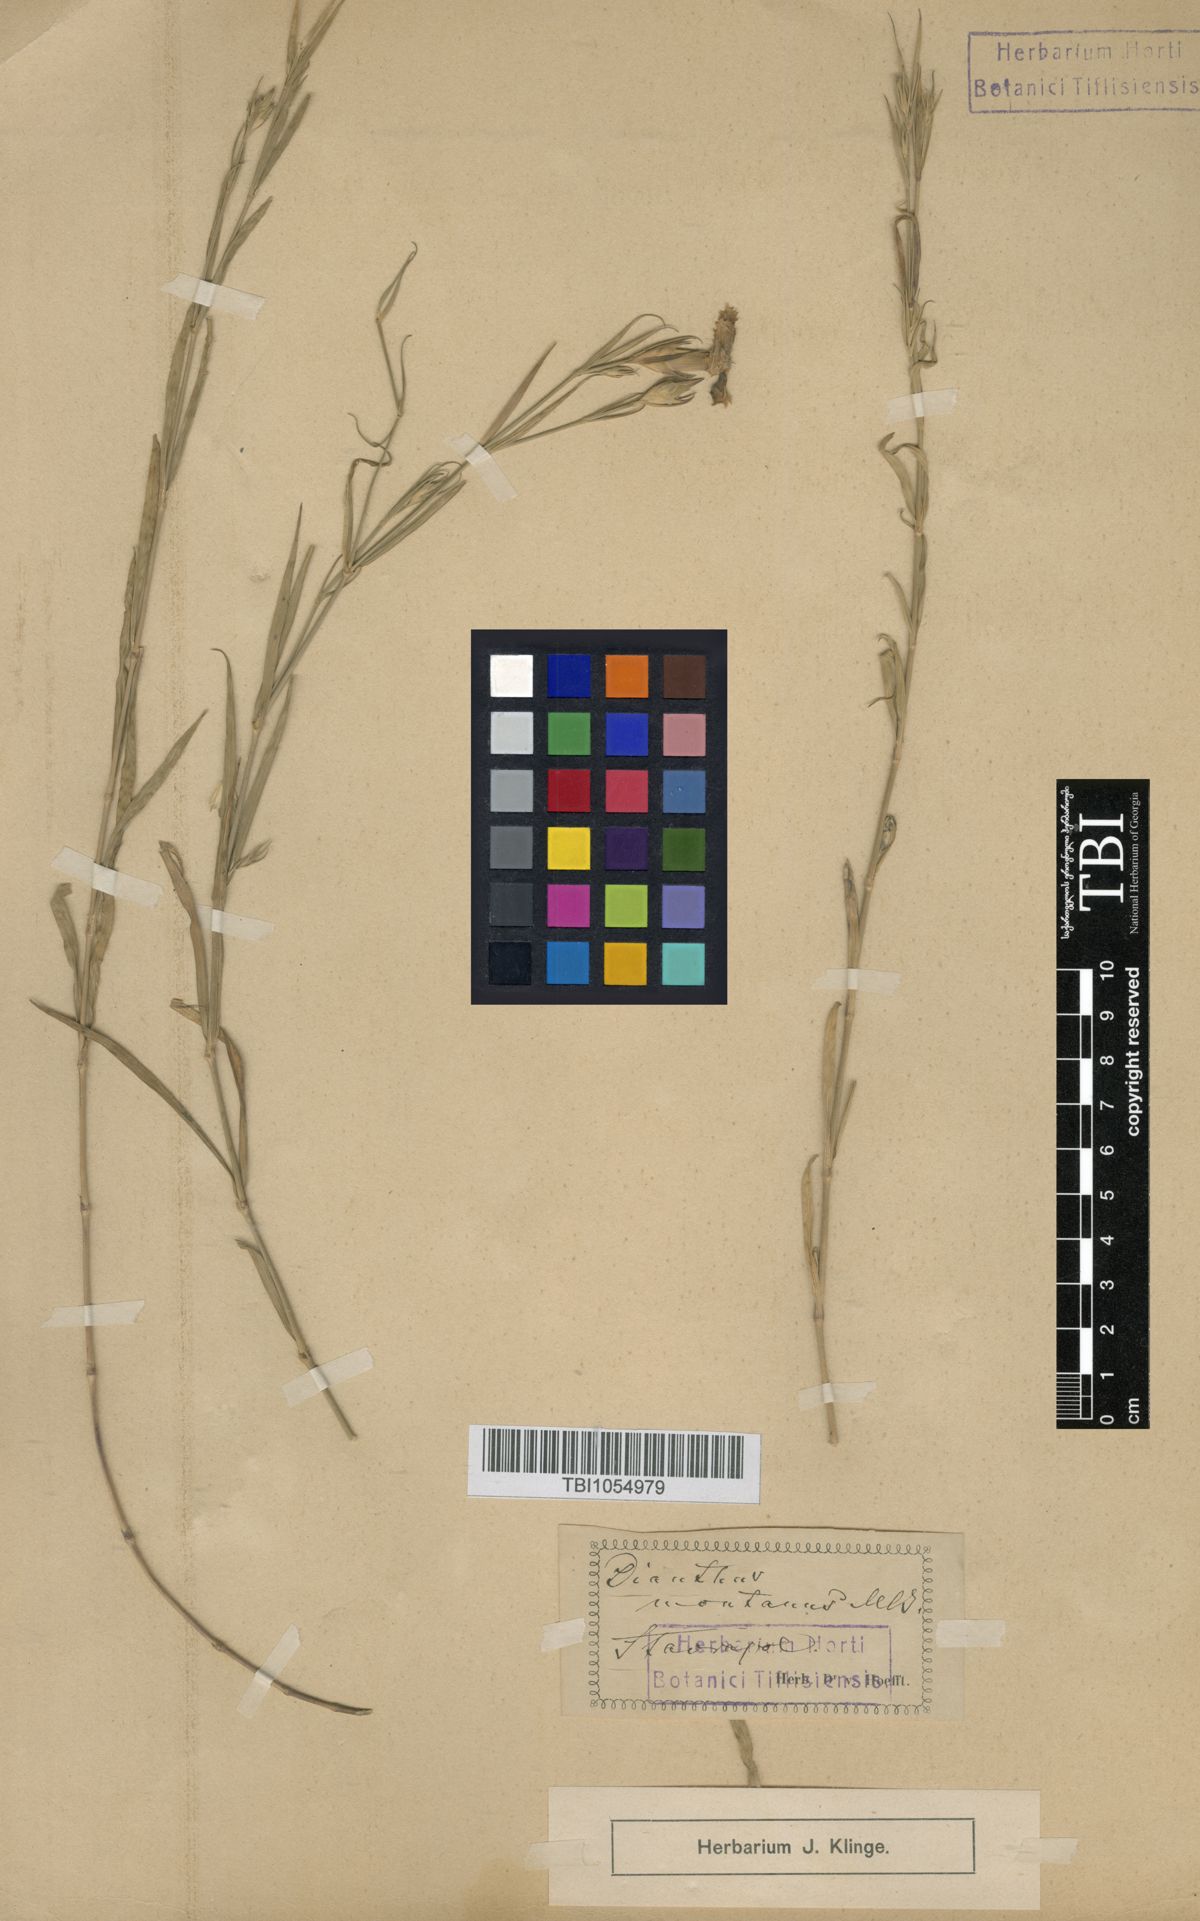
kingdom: Plantae
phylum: Tracheophyta
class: Magnoliopsida
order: Caryophyllales
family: Caryophyllaceae
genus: Dianthus
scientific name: Dianthus caucaseus
